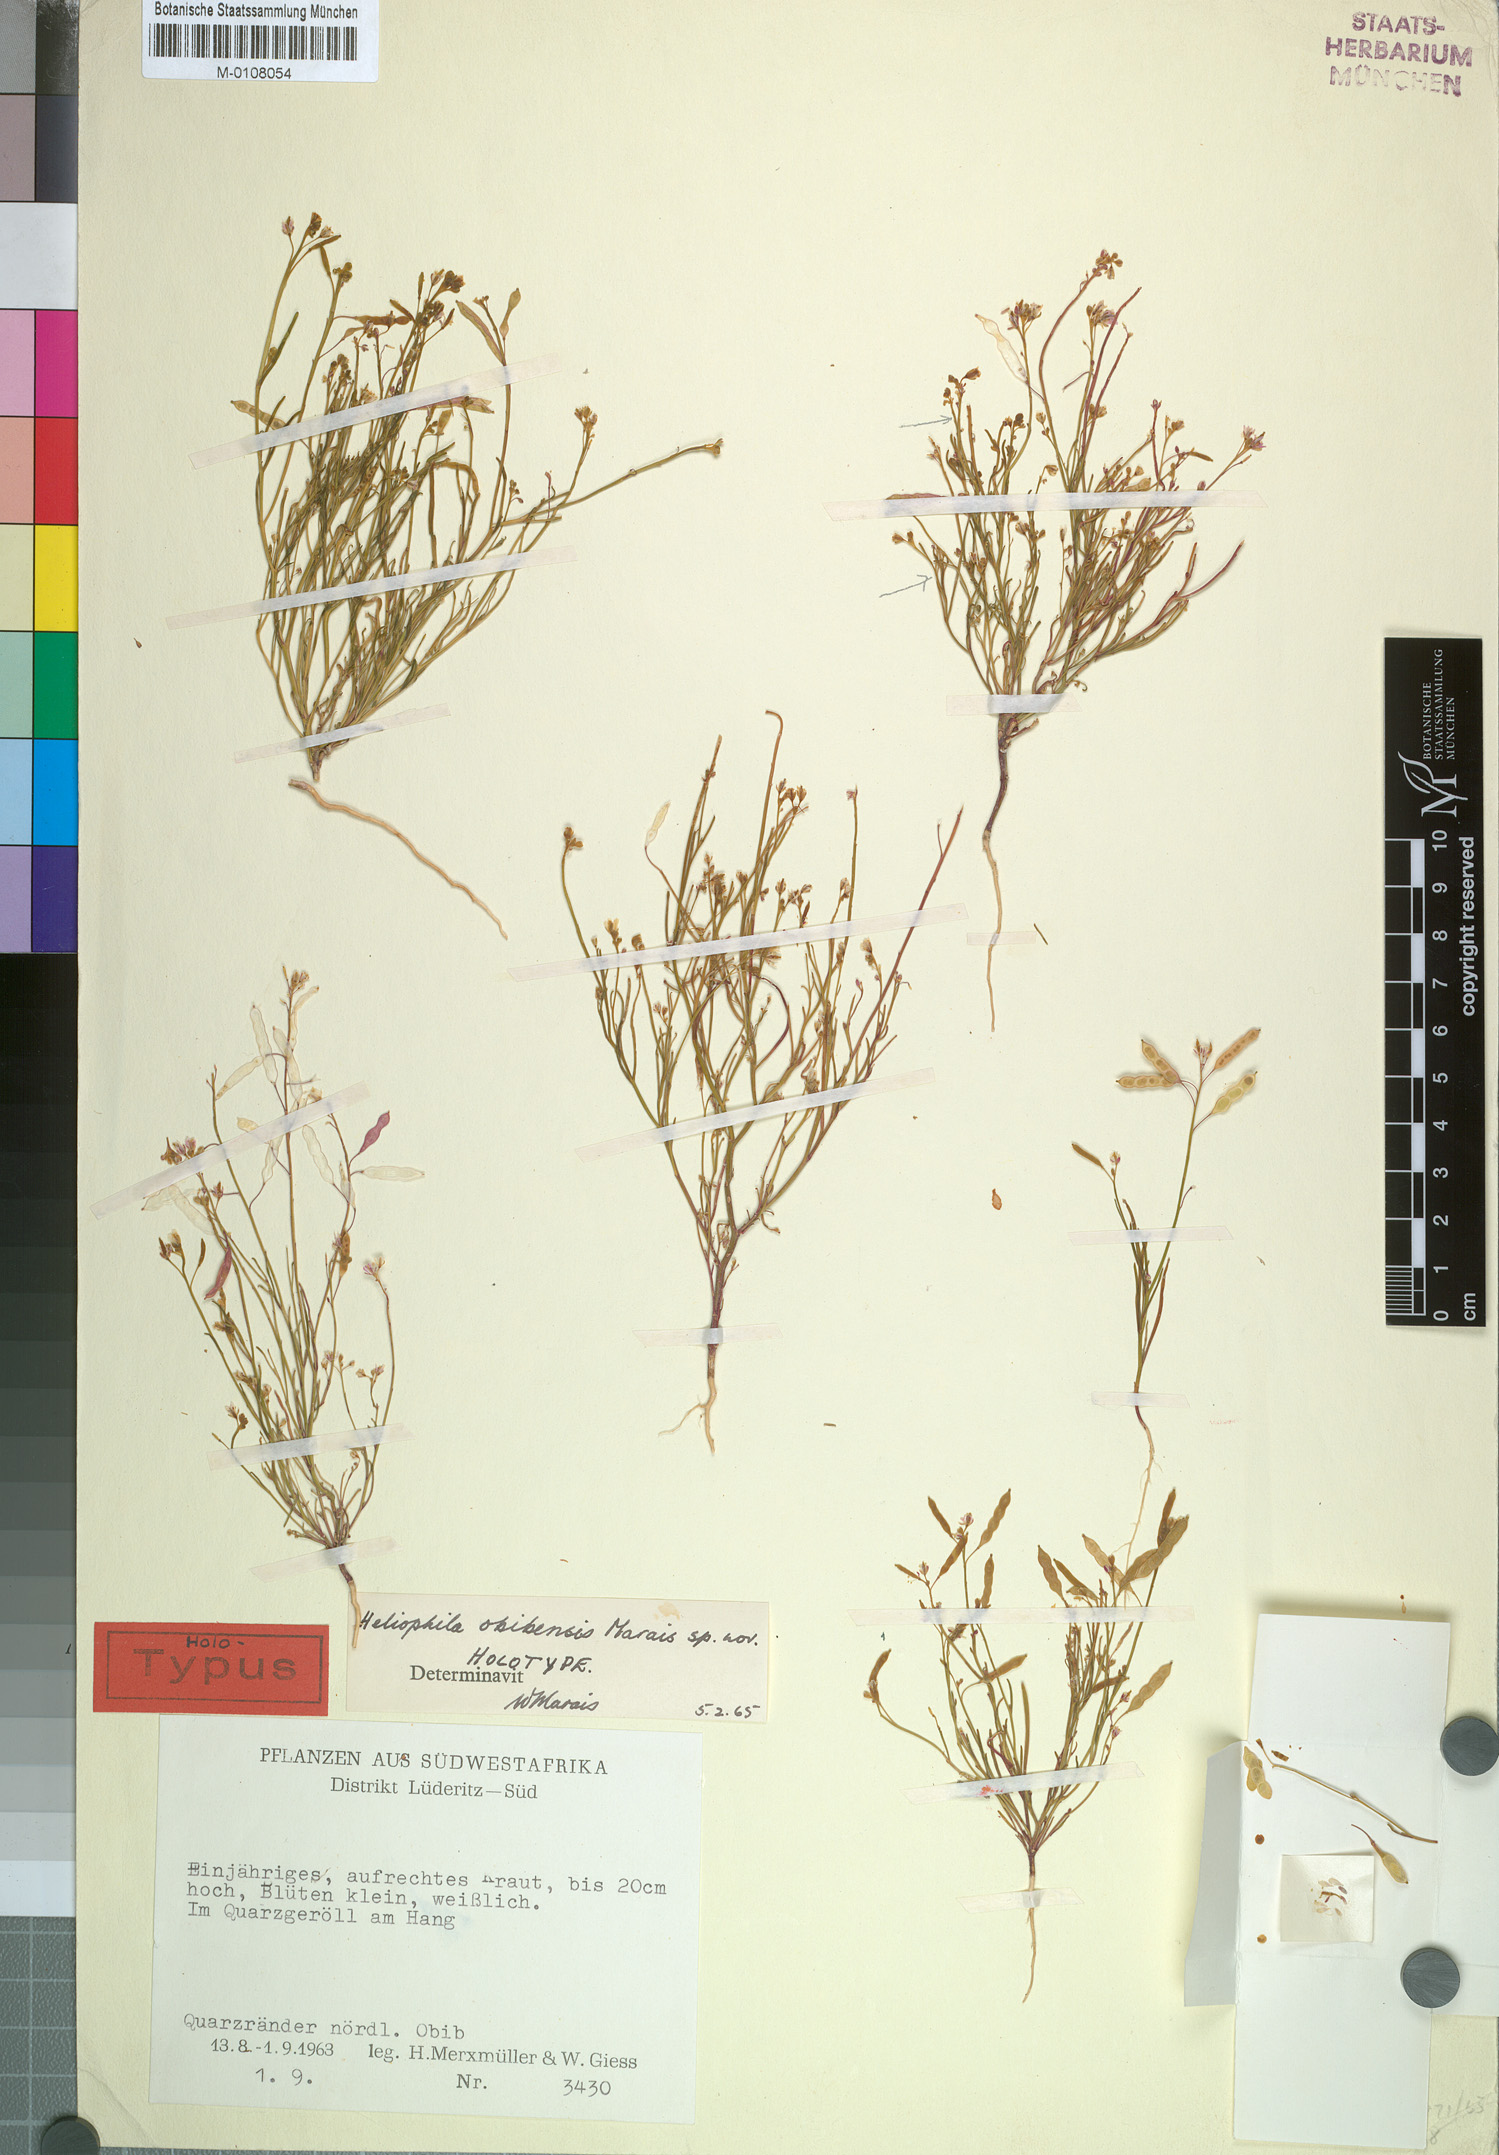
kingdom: Plantae
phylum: Tracheophyta
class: Magnoliopsida
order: Brassicales
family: Brassicaceae
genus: Heliophila
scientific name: Heliophila obibensis
